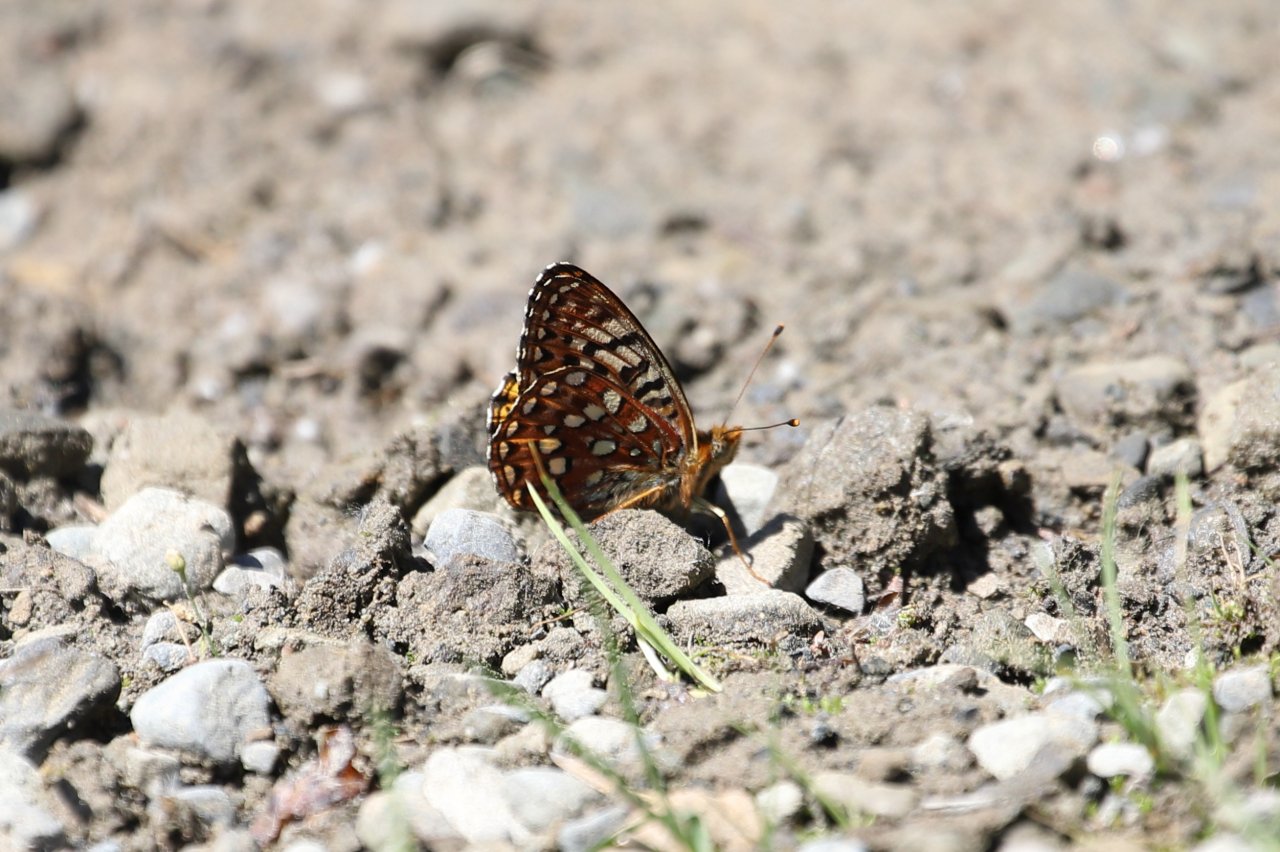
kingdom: Animalia
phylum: Arthropoda
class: Insecta
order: Lepidoptera
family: Nymphalidae
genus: Speyeria
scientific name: Speyeria hydaspe
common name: Hydaspe Fritillary
